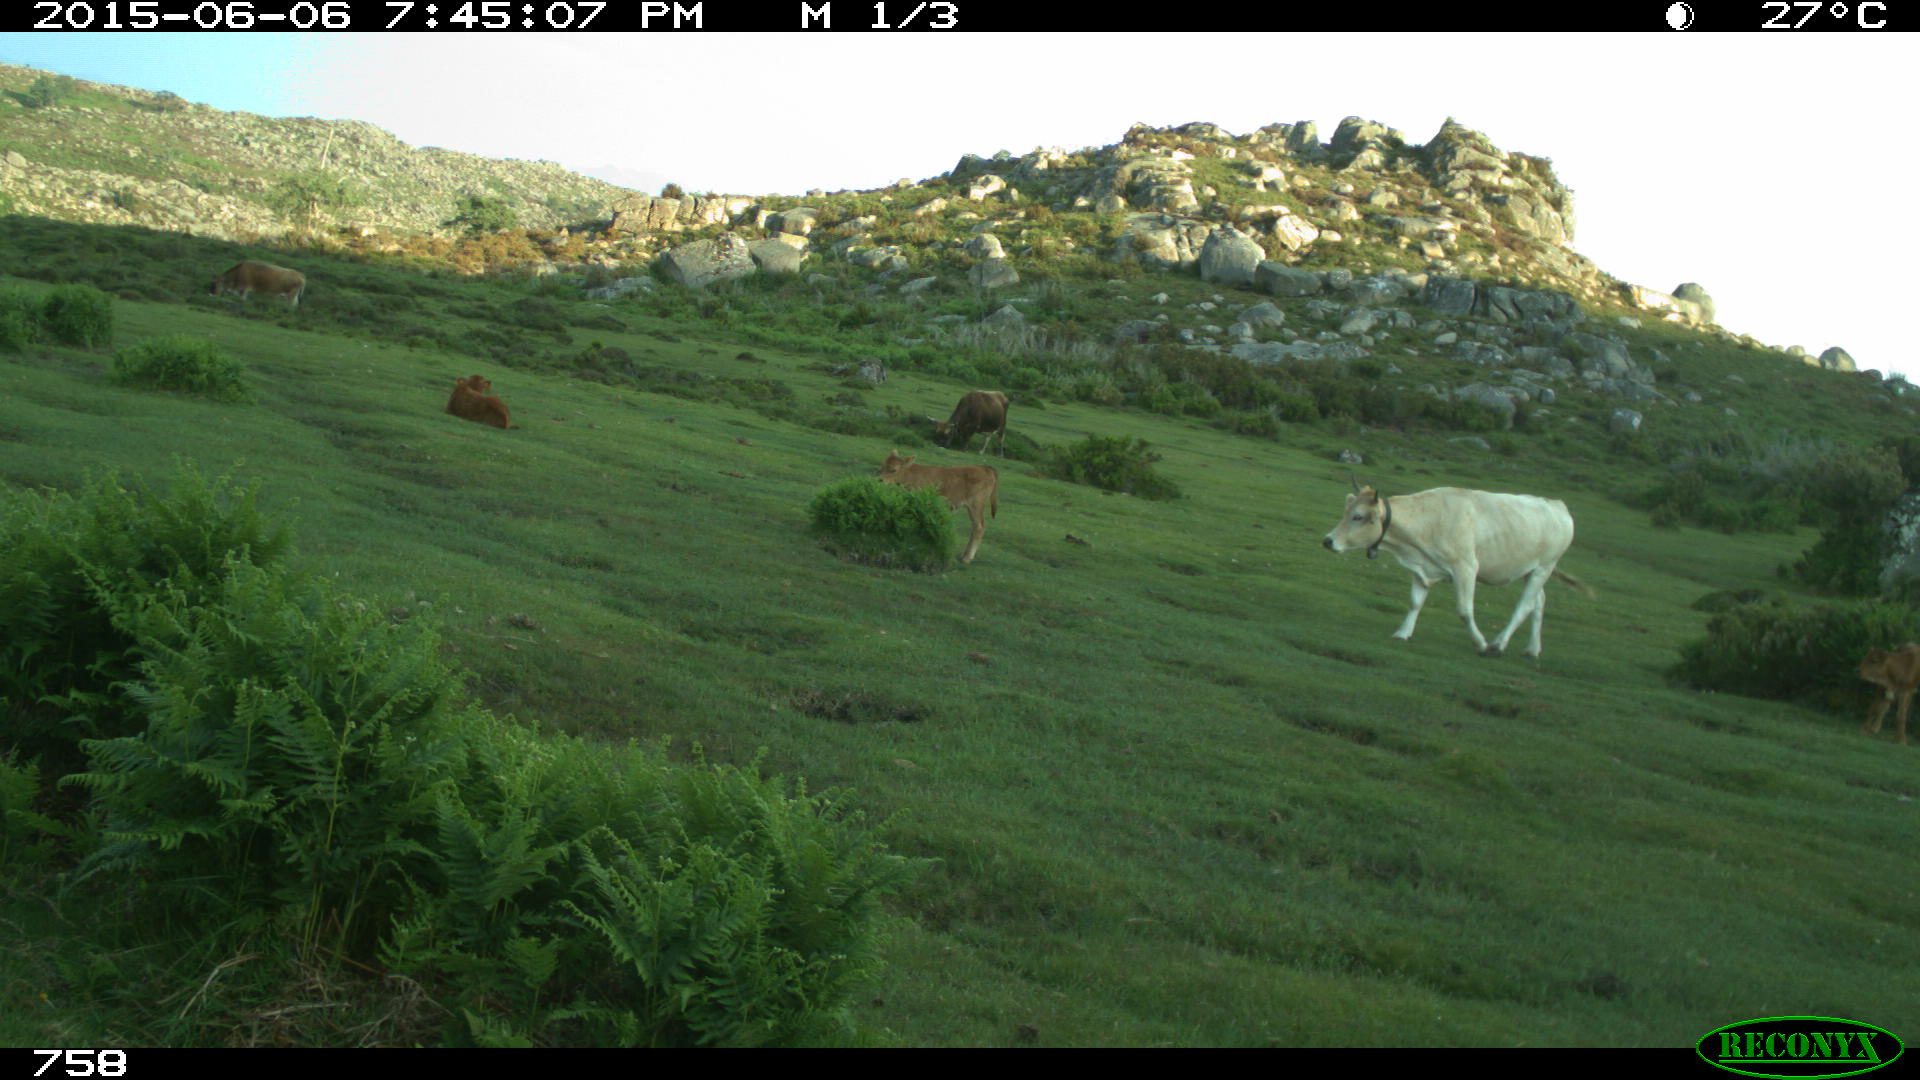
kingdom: Animalia
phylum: Chordata
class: Mammalia
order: Artiodactyla
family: Bovidae
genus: Bos
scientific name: Bos taurus
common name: Domesticated cattle
